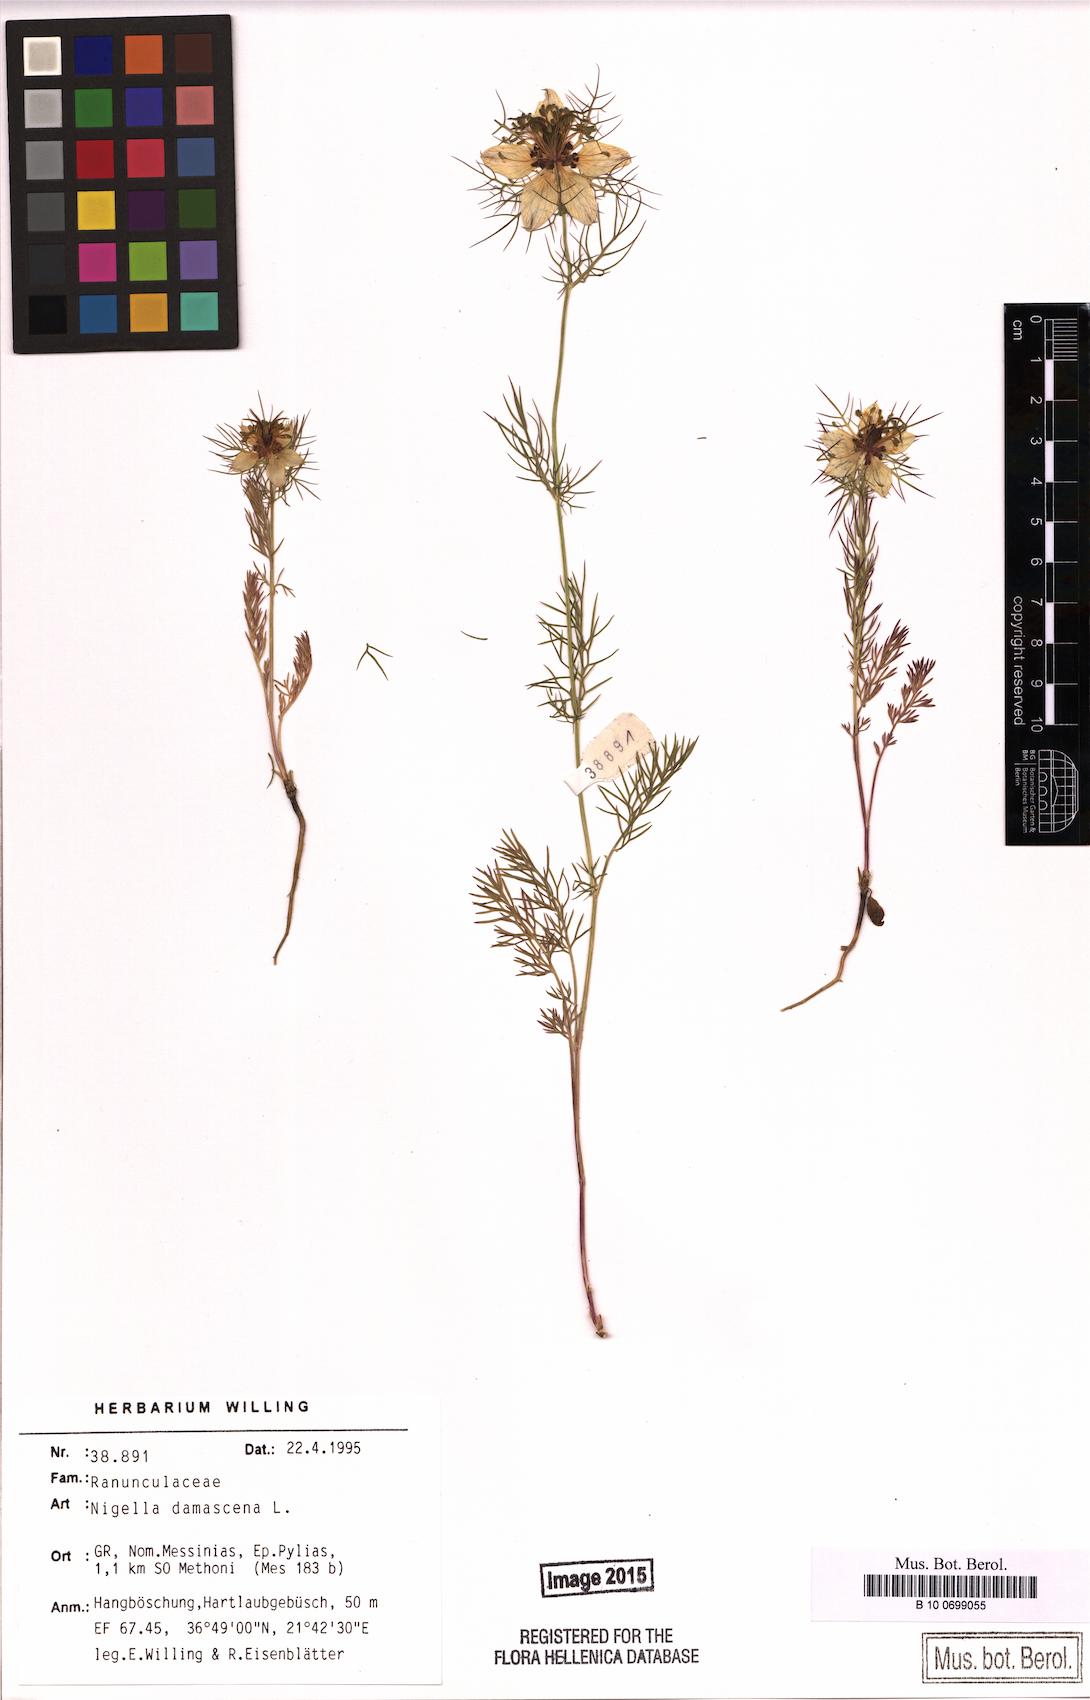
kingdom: Plantae
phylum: Tracheophyta
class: Magnoliopsida
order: Ranunculales
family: Ranunculaceae
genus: Nigella
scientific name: Nigella damascena
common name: Love-in-a-mist
